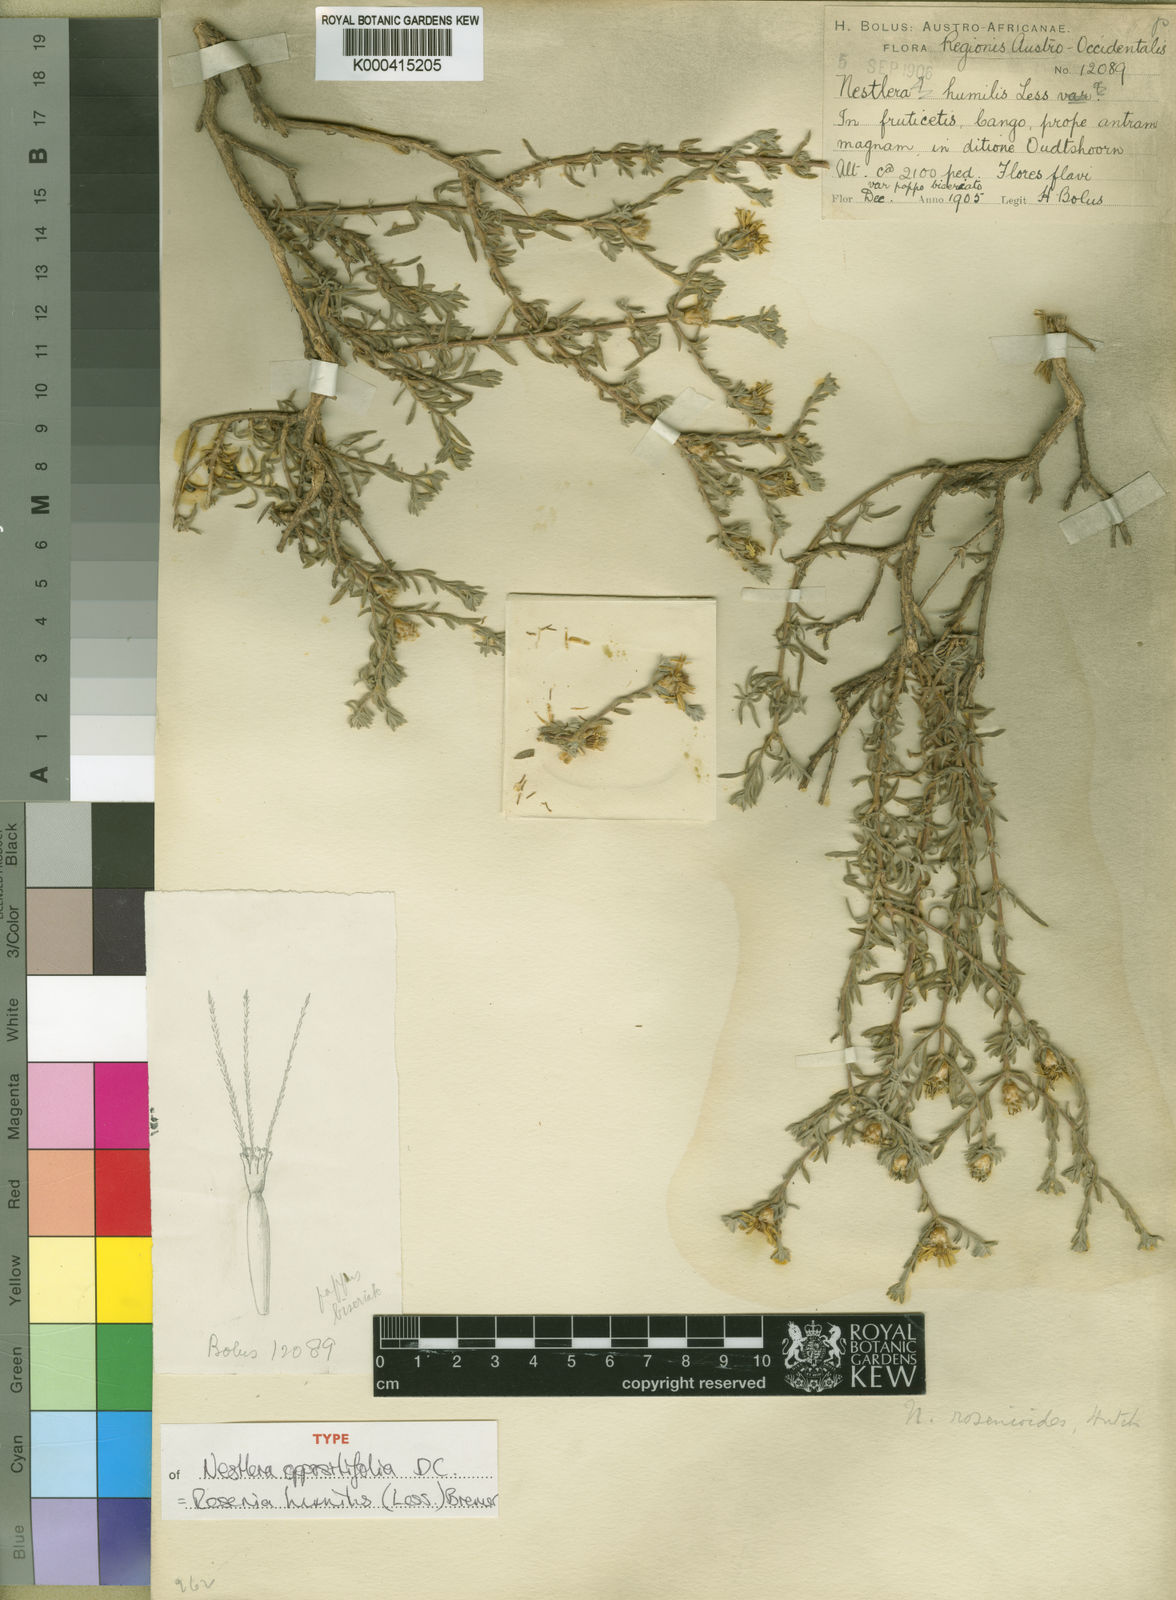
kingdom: Plantae
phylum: Tracheophyta
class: Magnoliopsida
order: Asterales
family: Asteraceae
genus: Oedera
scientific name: Oedera humilis
